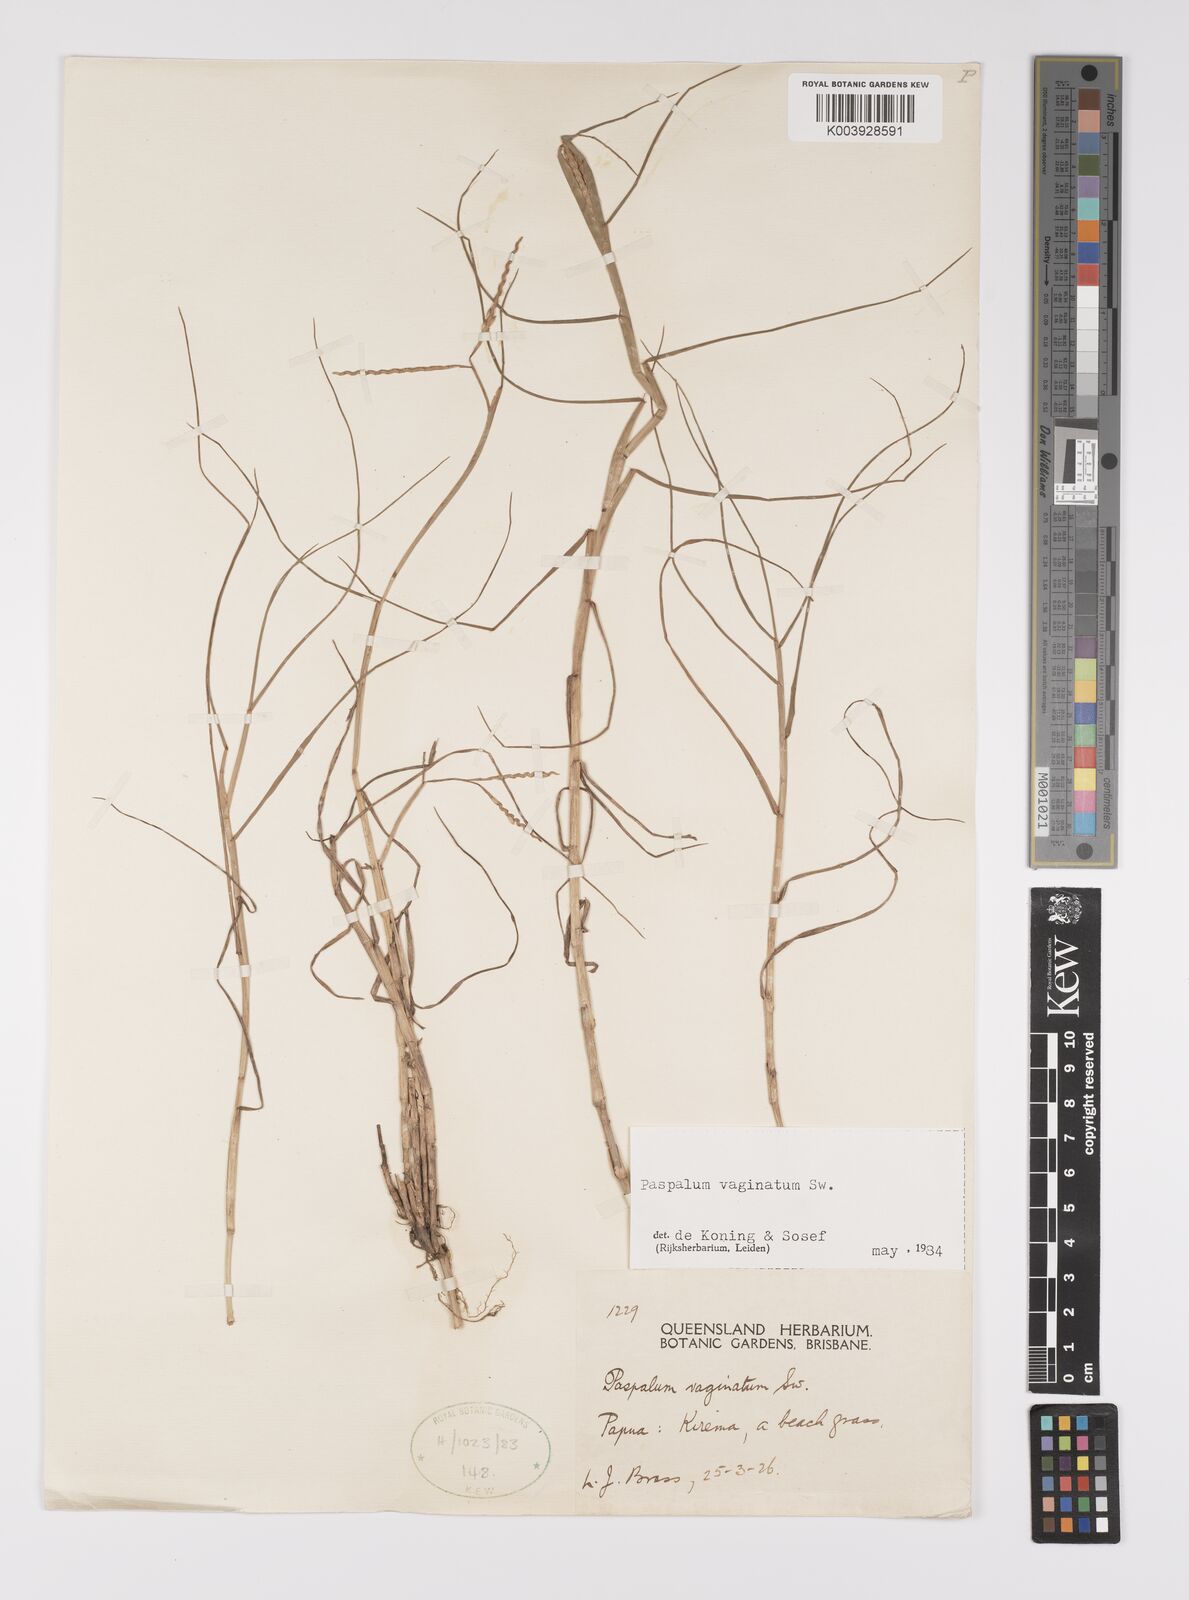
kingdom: Plantae
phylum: Tracheophyta
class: Liliopsida
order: Poales
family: Poaceae
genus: Paspalum
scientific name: Paspalum vaginatum
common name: Seashore paspalum
